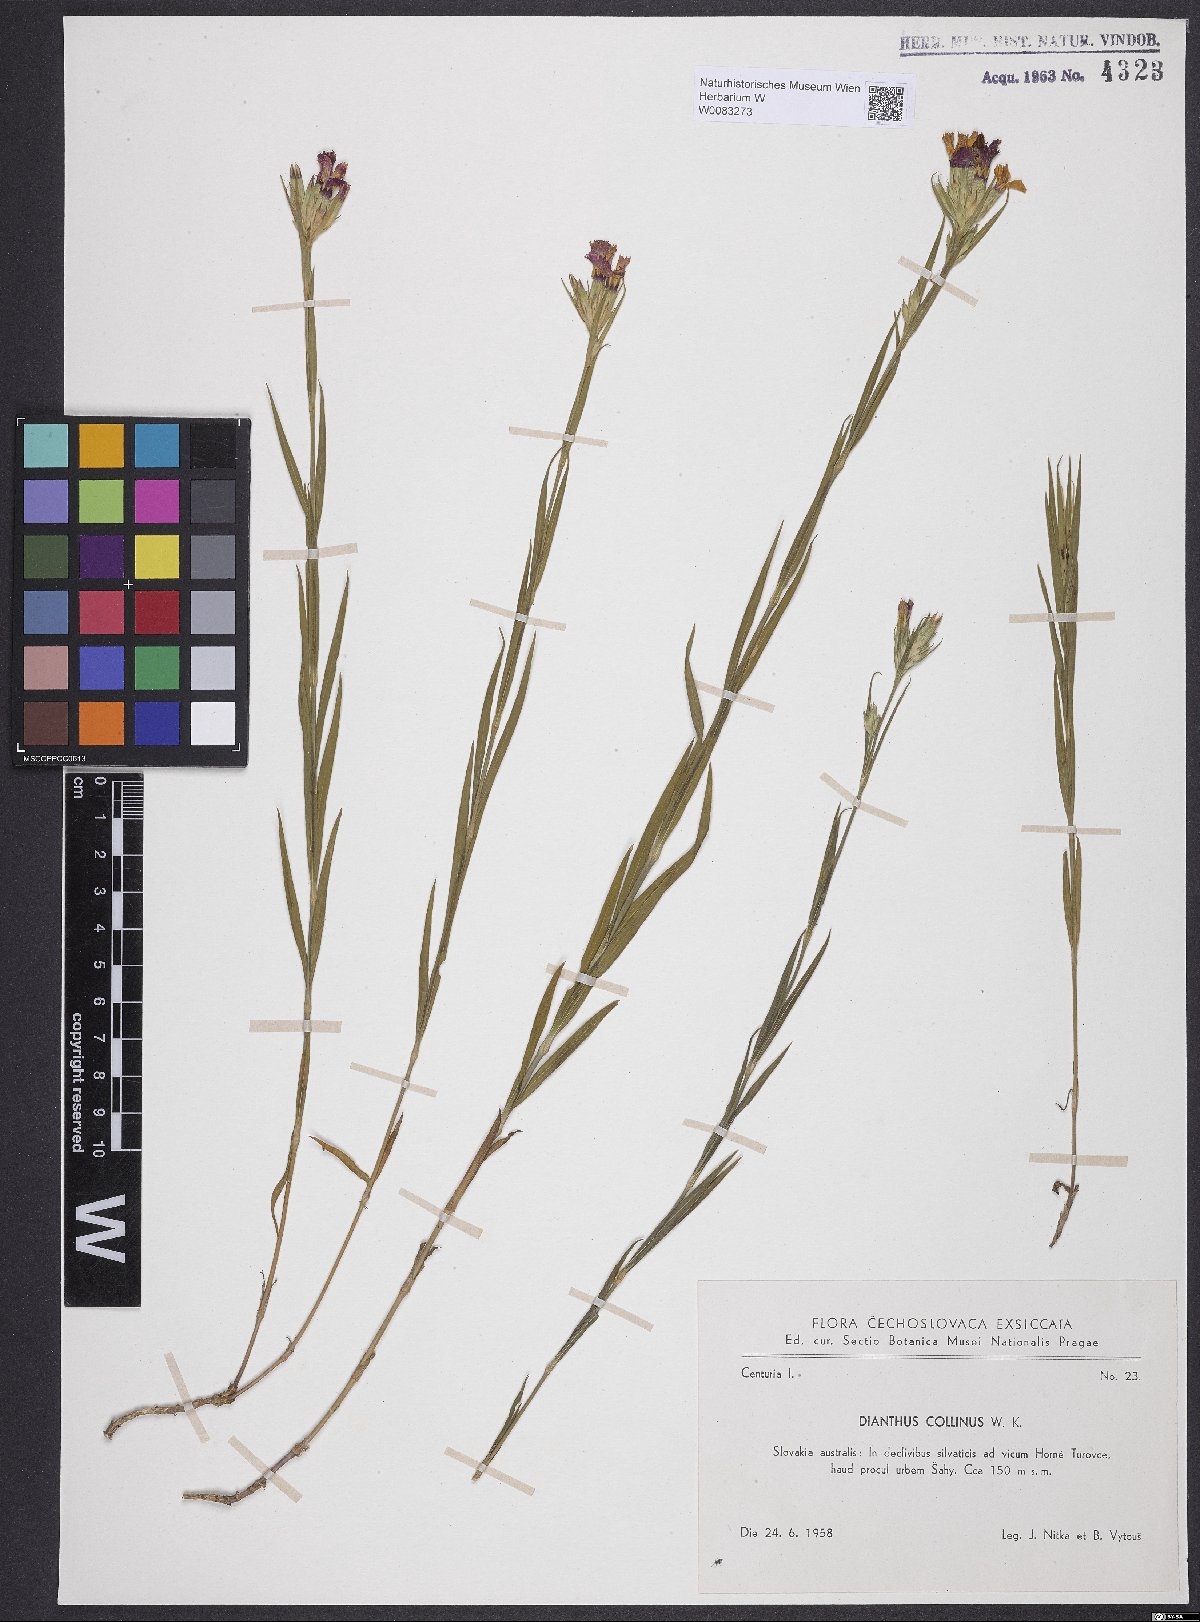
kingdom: Plantae
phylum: Tracheophyta
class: Magnoliopsida
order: Caryophyllales
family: Caryophyllaceae
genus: Dianthus
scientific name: Dianthus collinus
